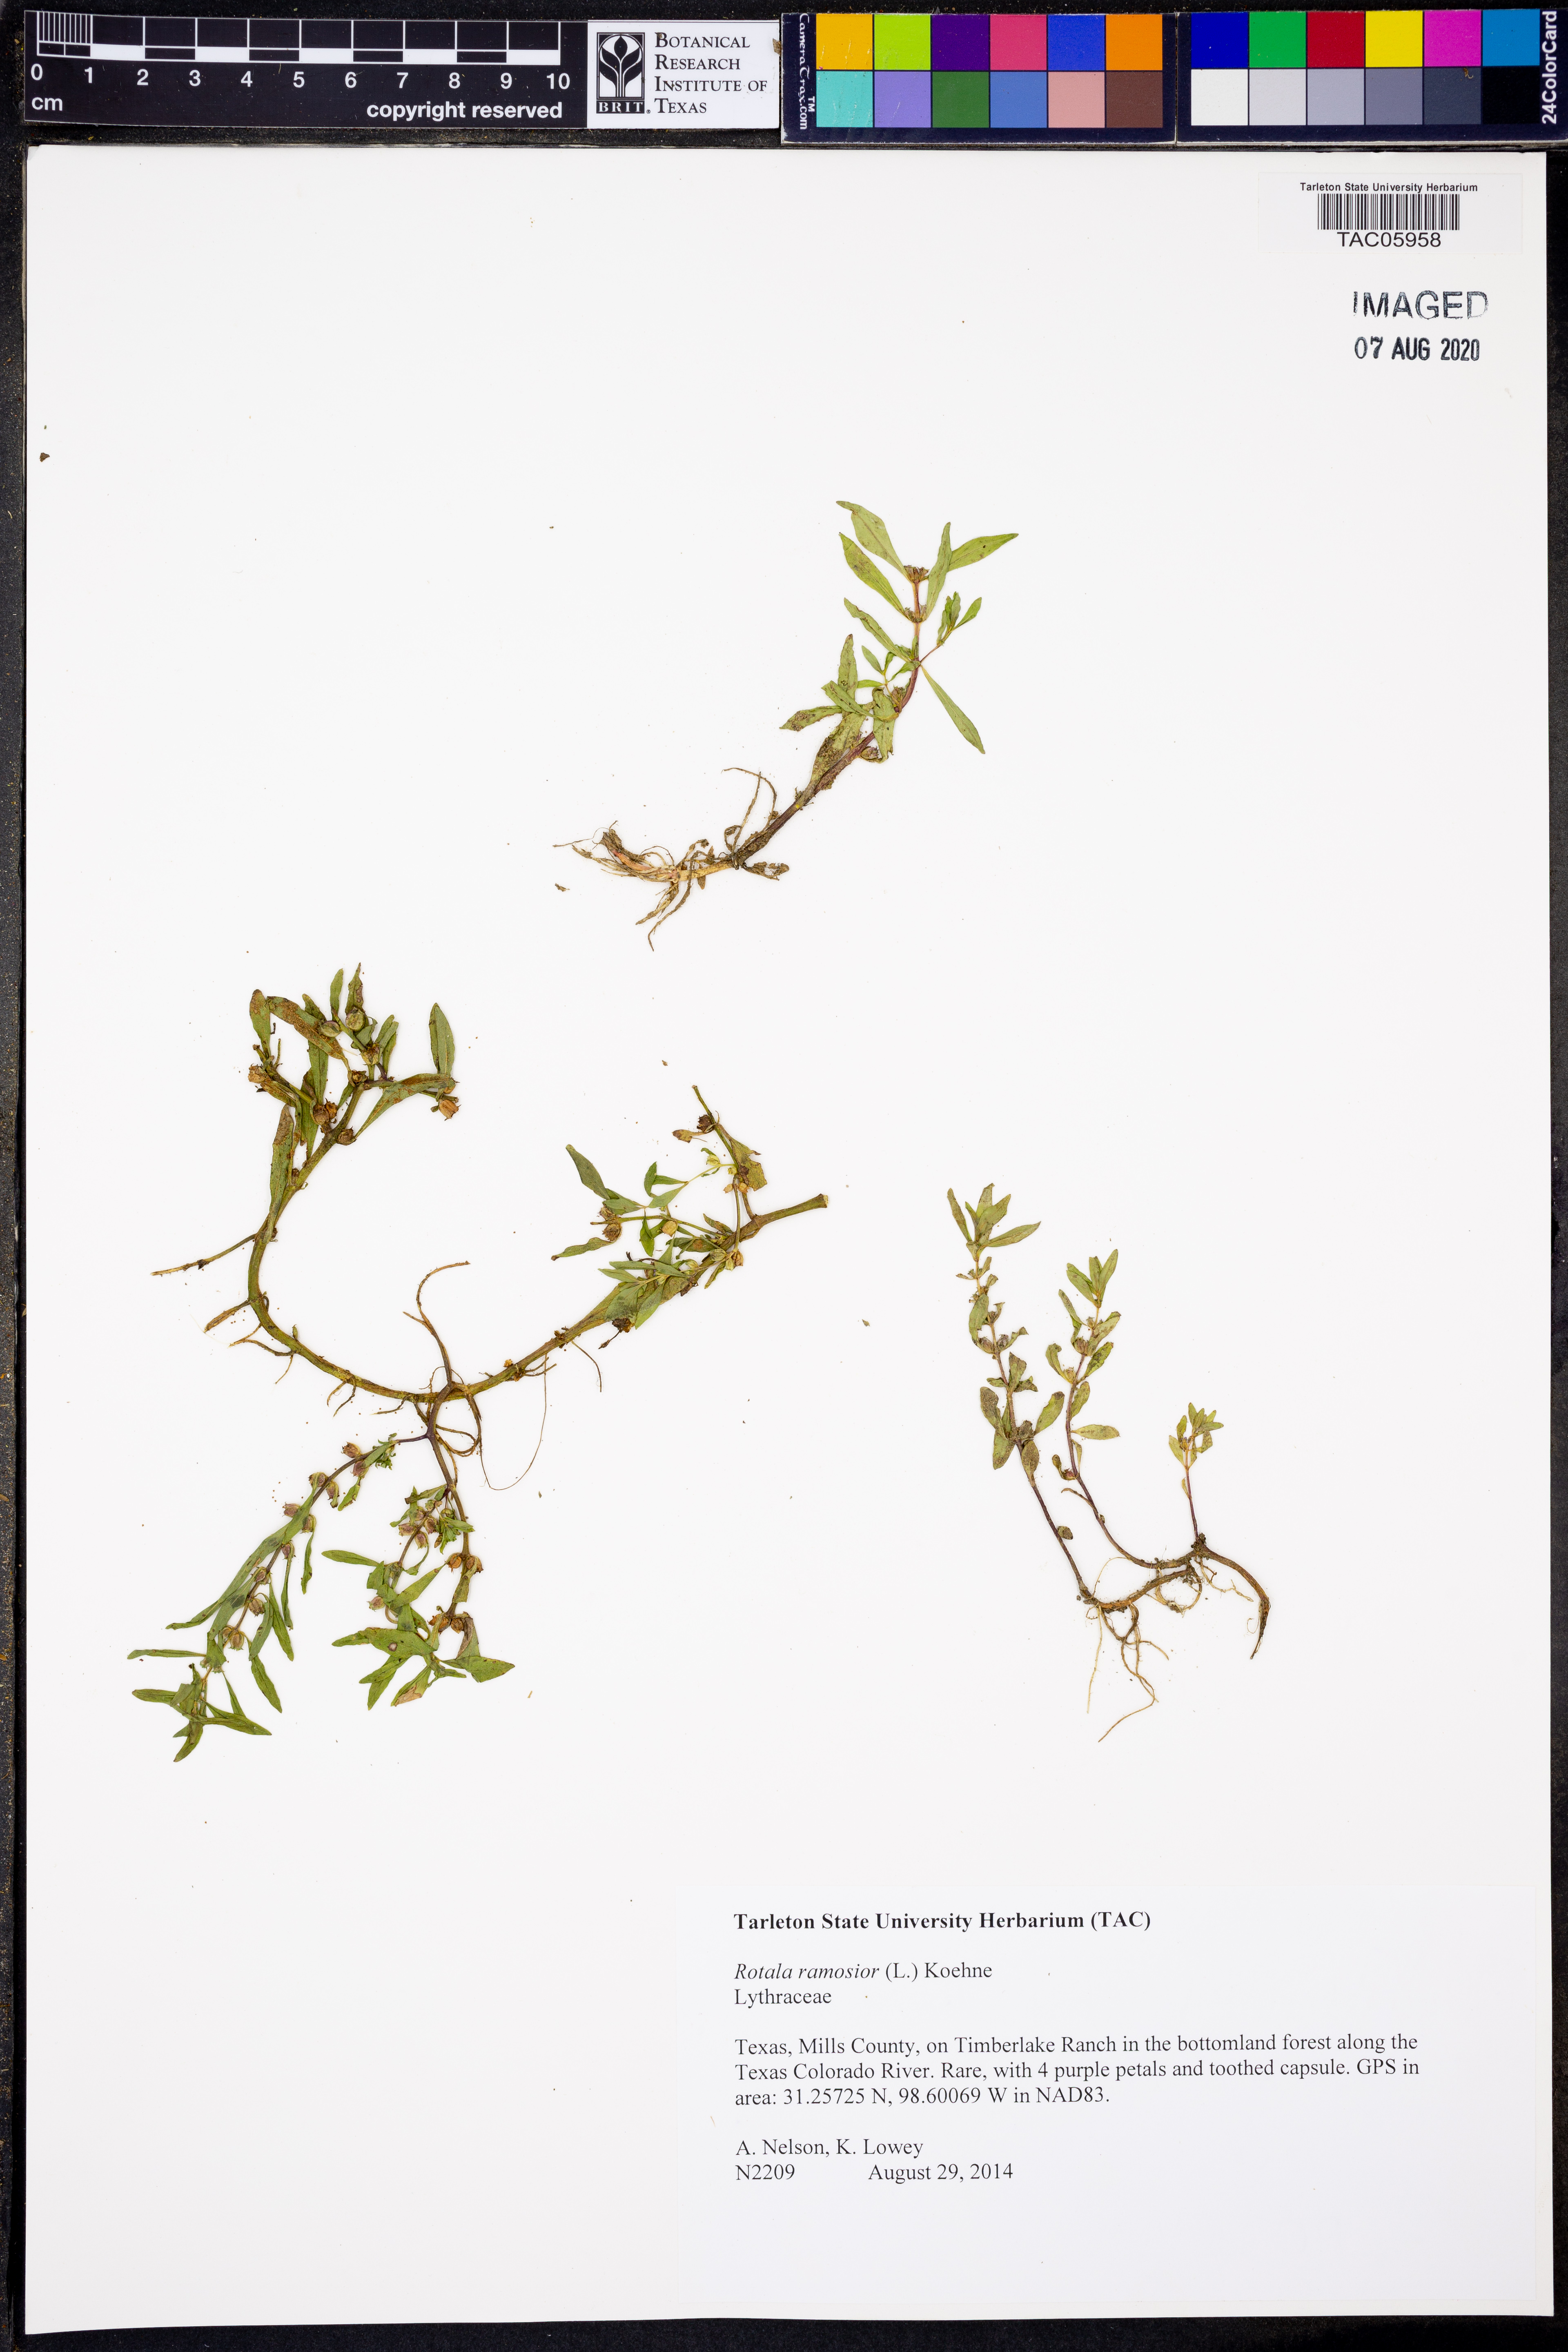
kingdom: Plantae
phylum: Tracheophyta
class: Magnoliopsida
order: Myrtales
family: Lythraceae
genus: Rotala
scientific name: Rotala ramosior
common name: Lowland rotala
